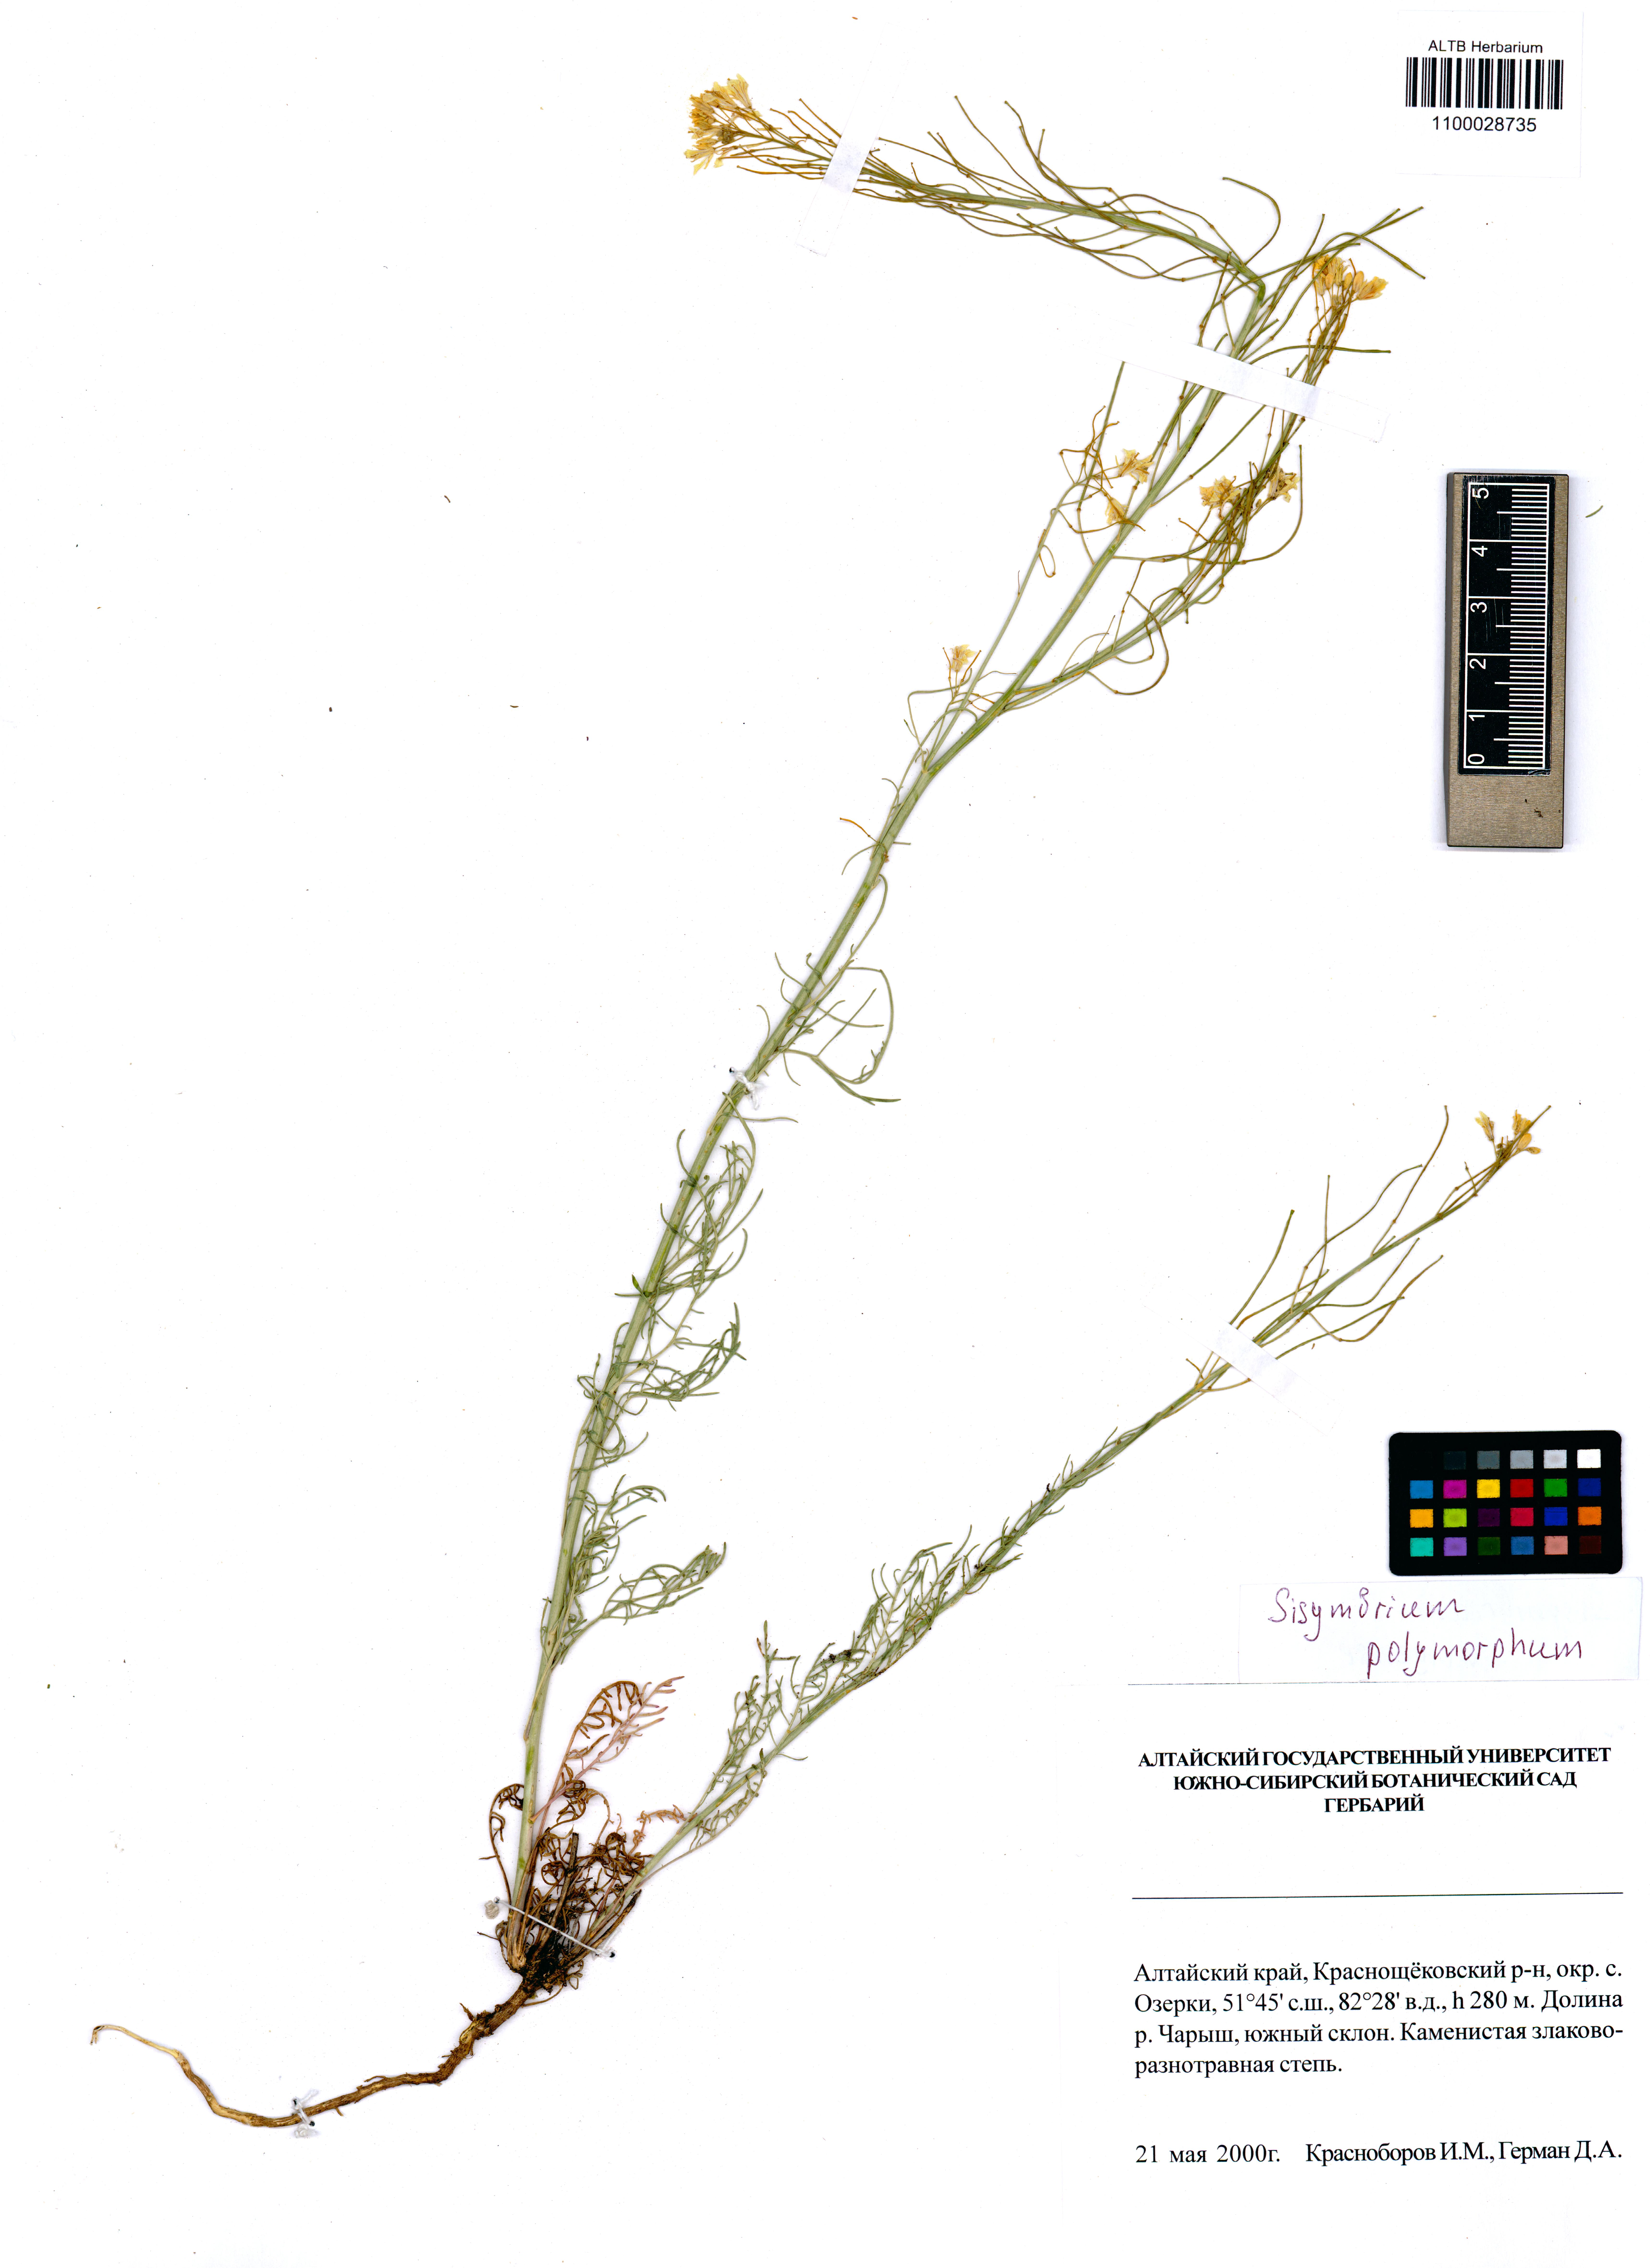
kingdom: Plantae
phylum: Tracheophyta
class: Magnoliopsida
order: Brassicales
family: Brassicaceae
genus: Sisymbrium
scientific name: Sisymbrium polymorphum
